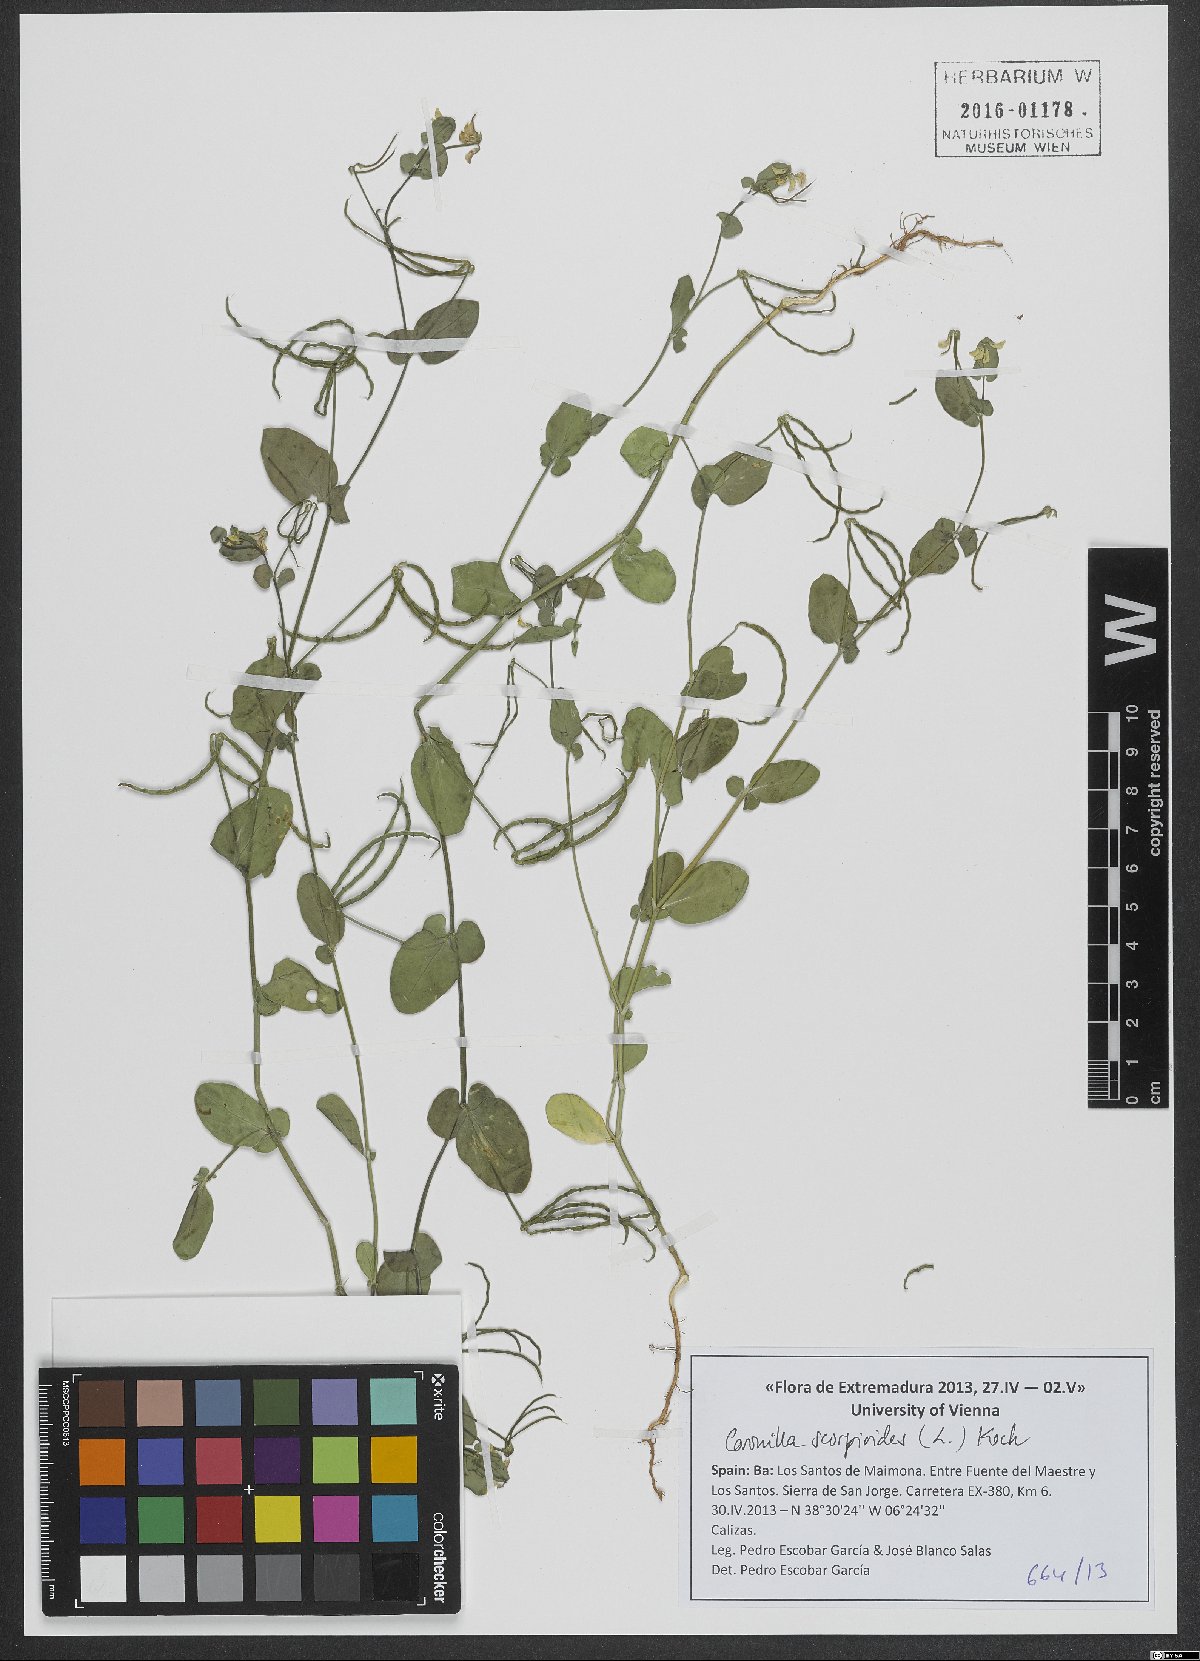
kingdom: Plantae
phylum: Tracheophyta
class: Magnoliopsida
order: Fabales
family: Fabaceae
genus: Coronilla
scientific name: Coronilla scorpioides
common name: Annual scorpion-vetch
